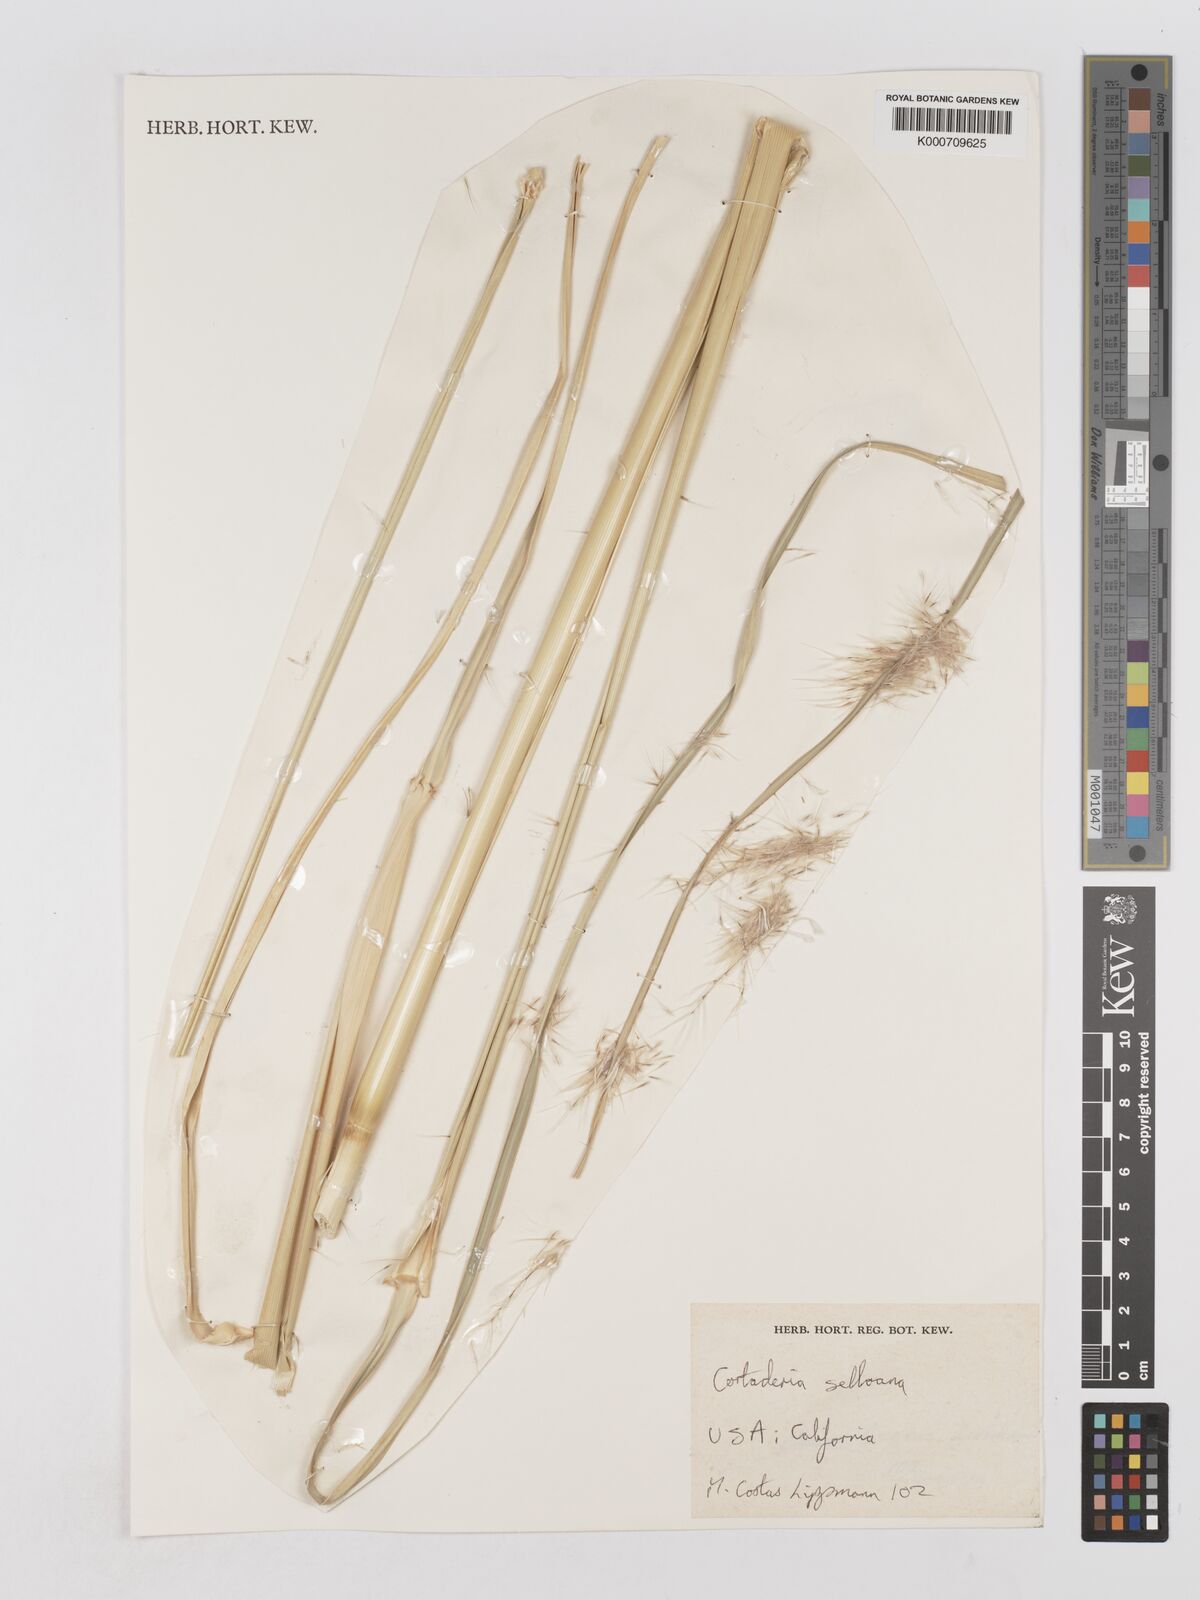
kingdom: Plantae
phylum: Tracheophyta
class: Liliopsida
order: Poales
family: Poaceae
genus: Cortaderia
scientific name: Cortaderia selloana
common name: Uruguayan pampas grass
